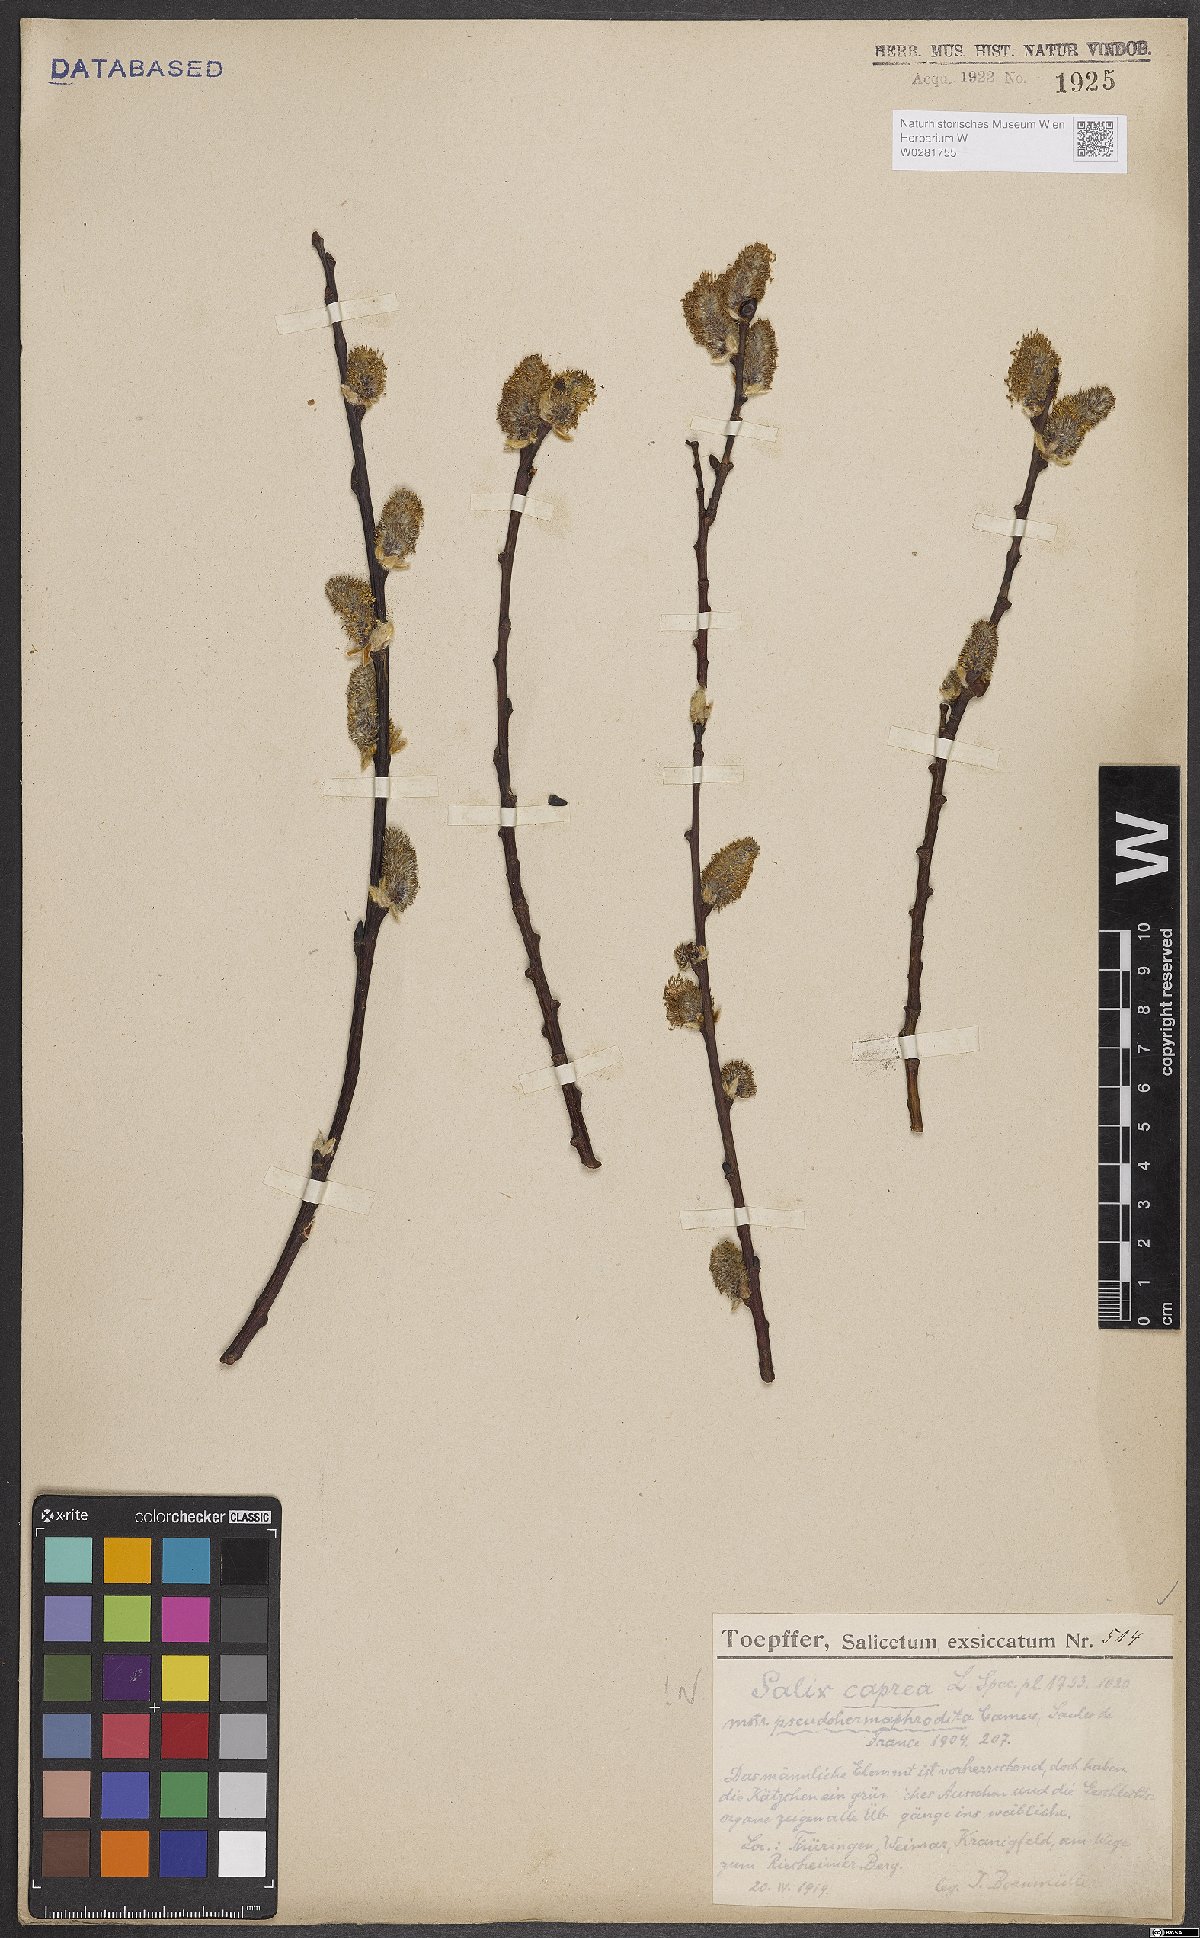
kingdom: Plantae
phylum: Tracheophyta
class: Magnoliopsida
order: Malpighiales
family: Salicaceae
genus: Salix
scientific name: Salix caprea
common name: Goat willow
